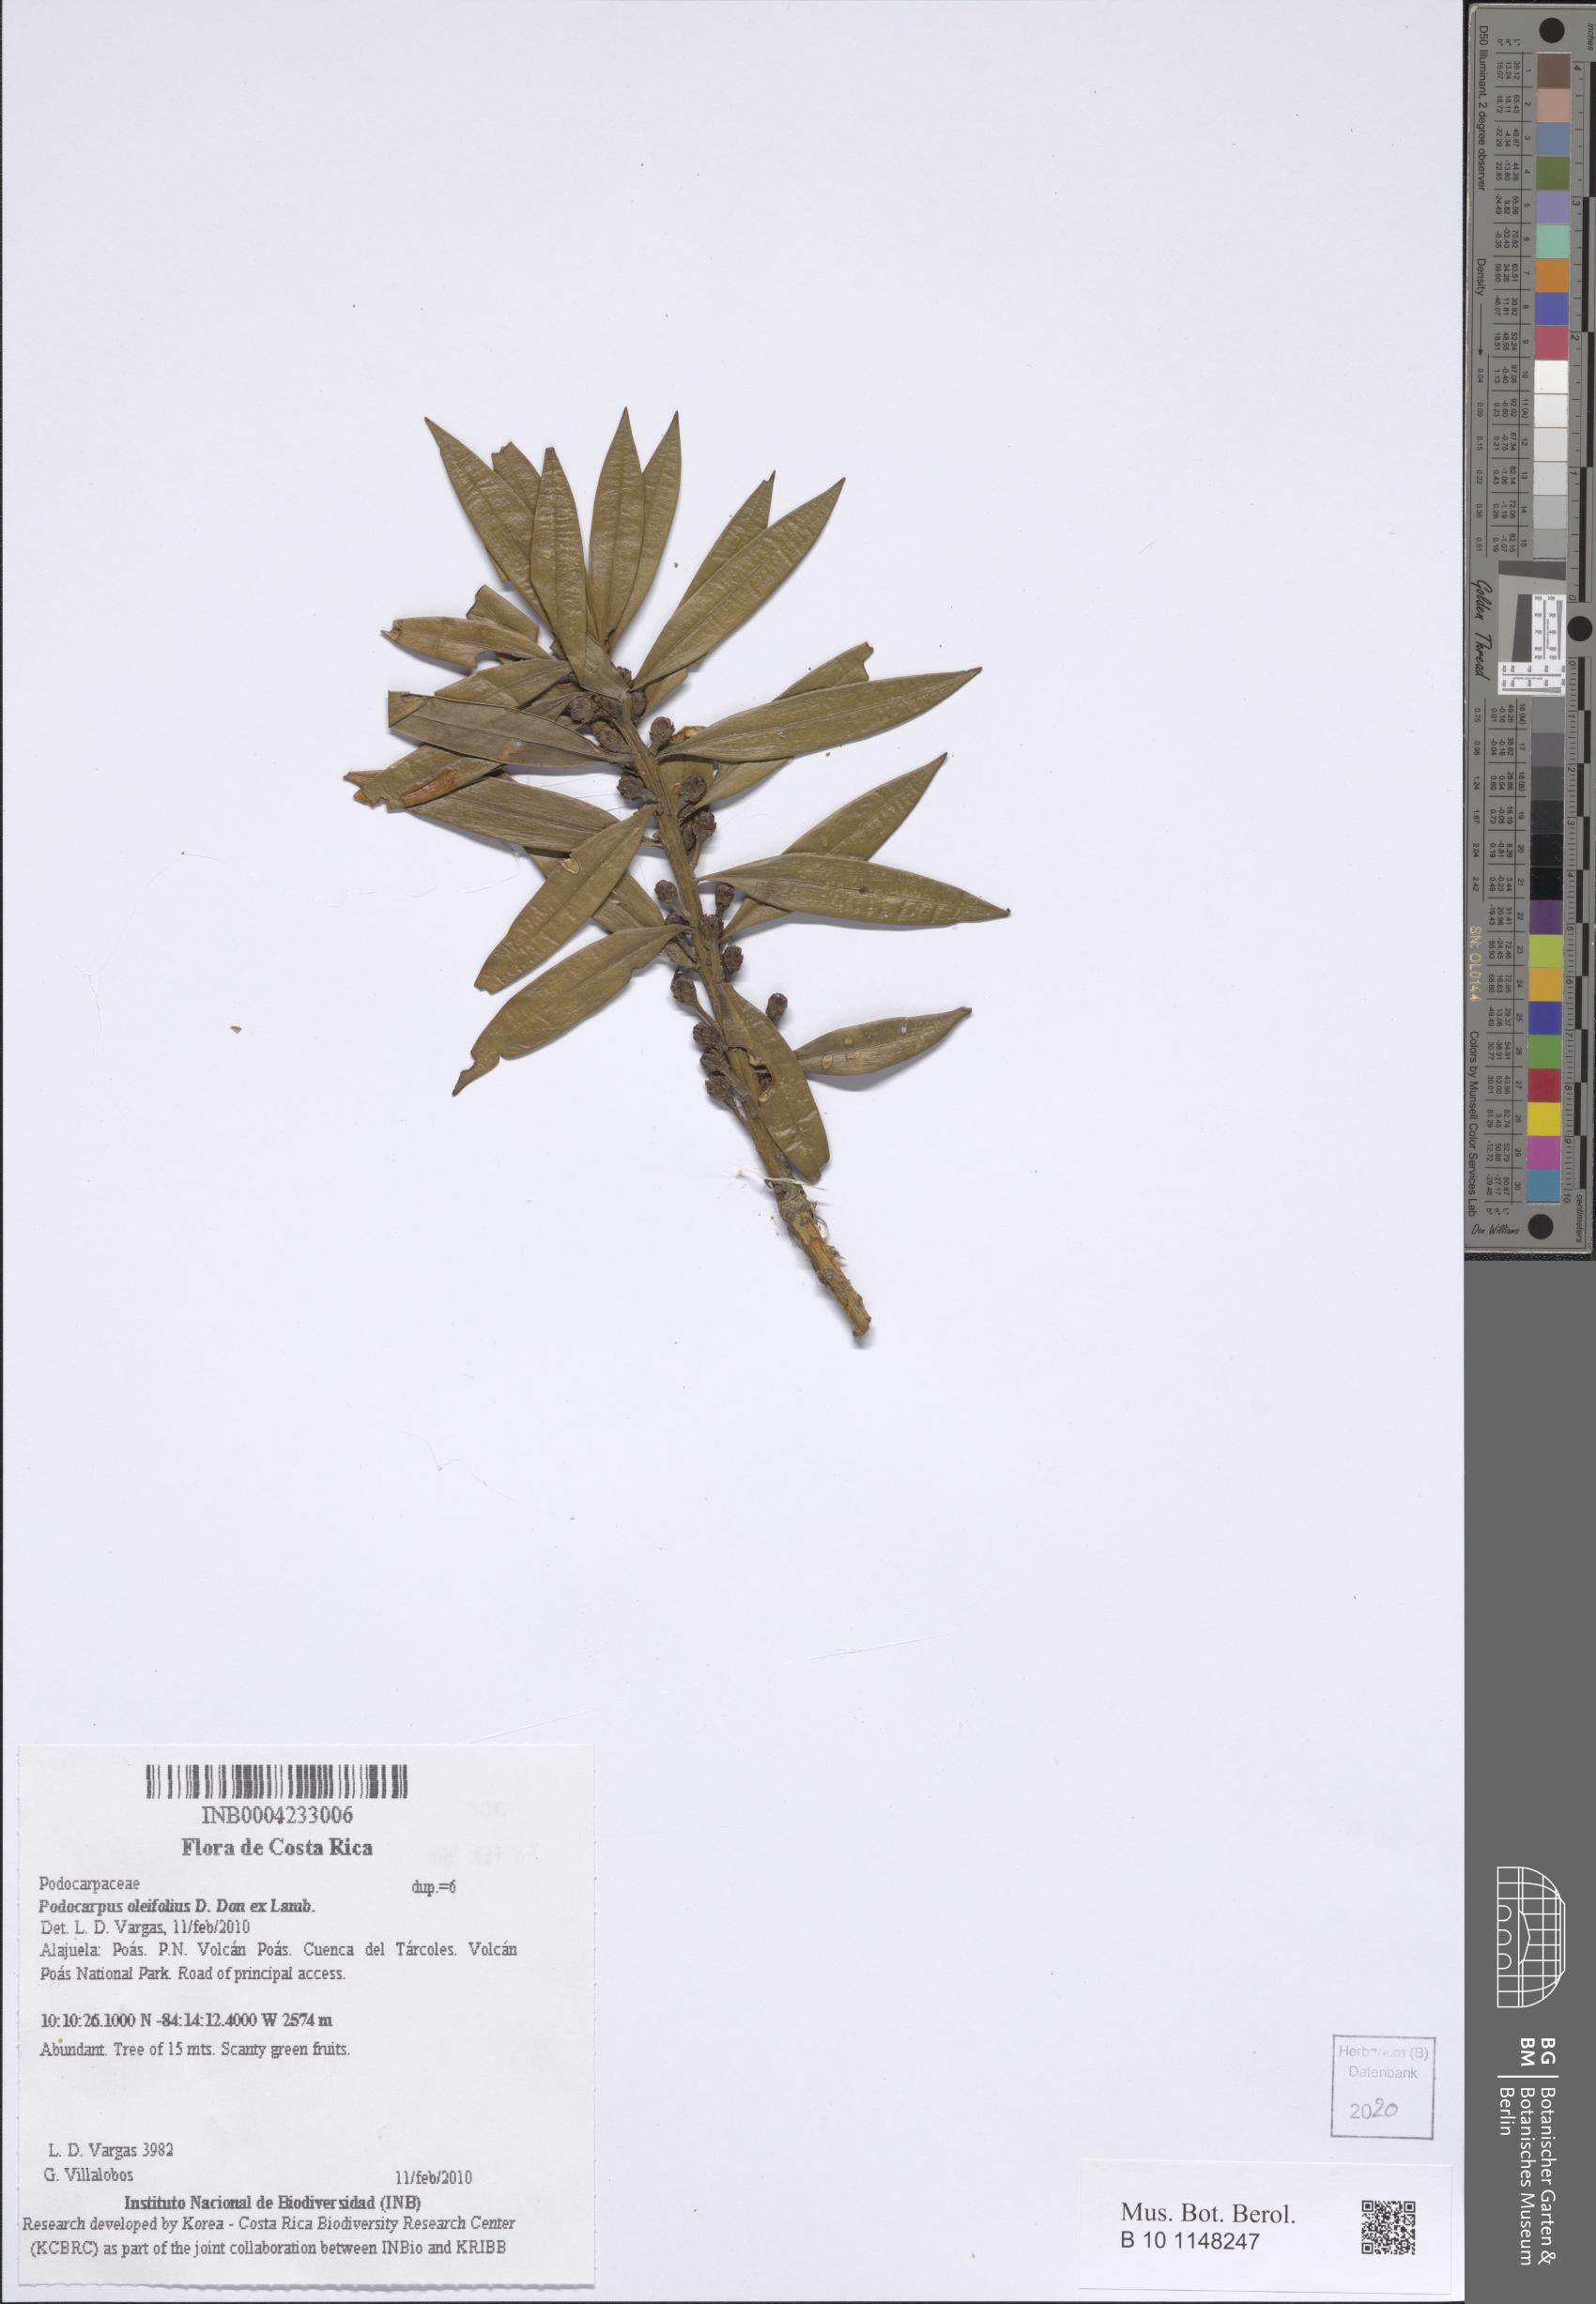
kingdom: Plantae
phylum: Tracheophyta
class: Pinopsida
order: Pinales
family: Podocarpaceae
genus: Podocarpus
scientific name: Podocarpus oleifolius
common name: Olive-leaf podoberry
